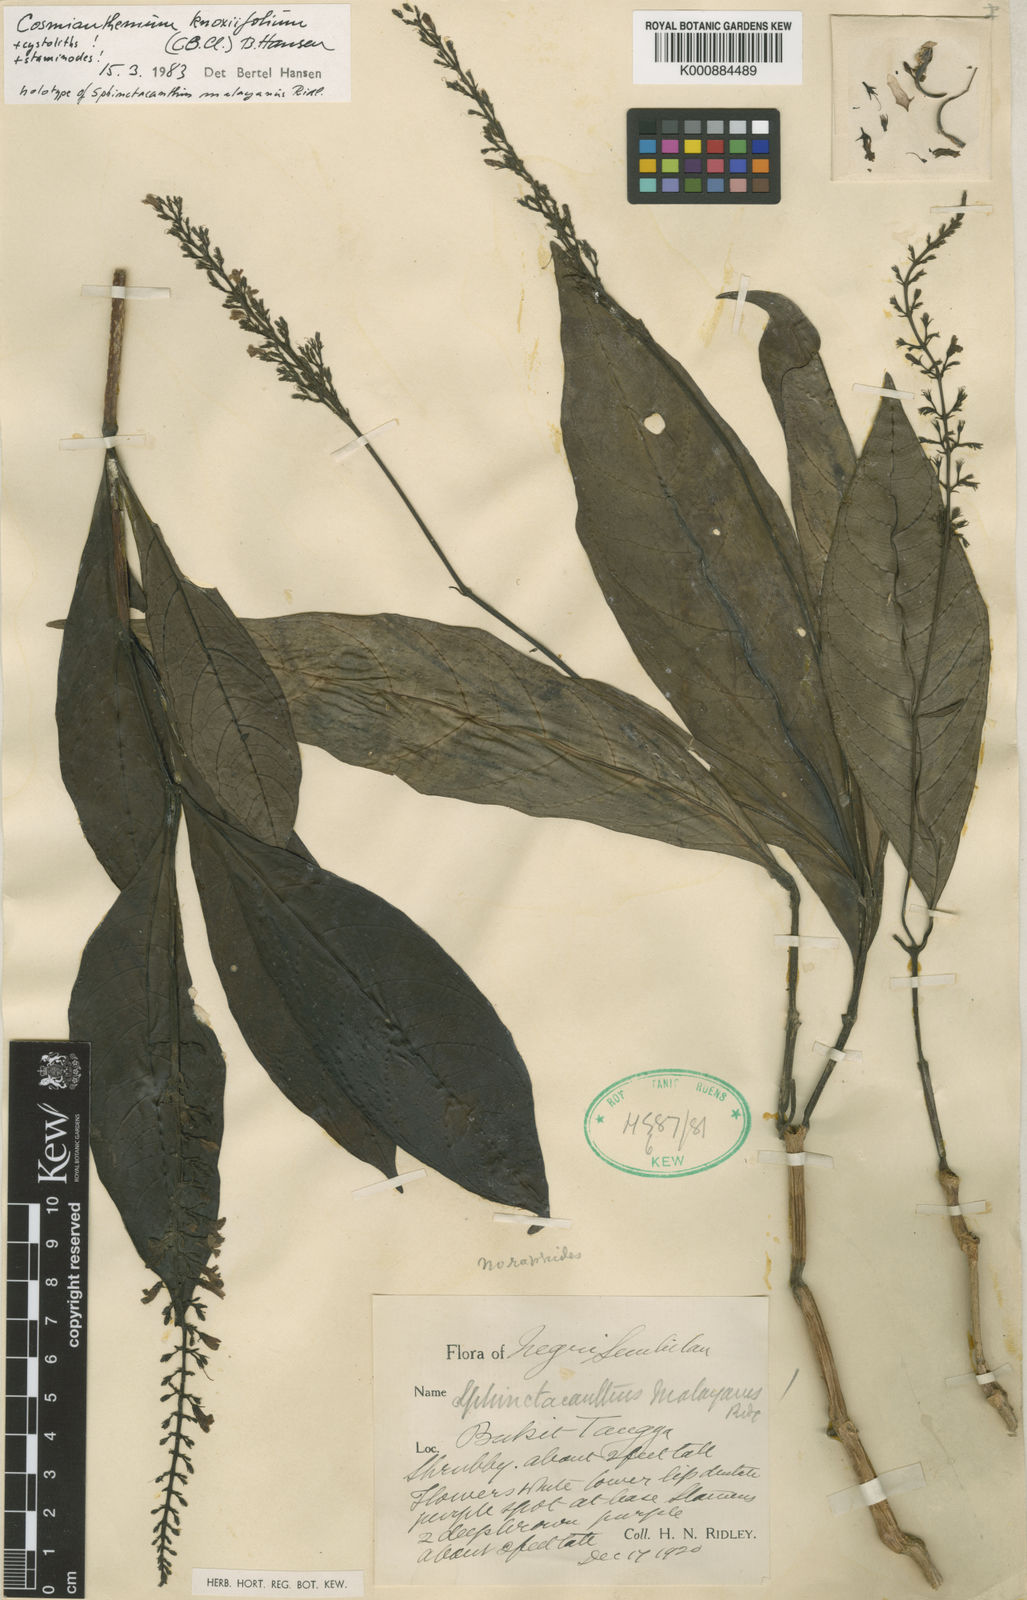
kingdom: Plantae
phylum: Tracheophyta
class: Magnoliopsida
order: Lamiales
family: Acanthaceae
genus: Cosmianthemum
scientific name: Cosmianthemum knoxiifolium
